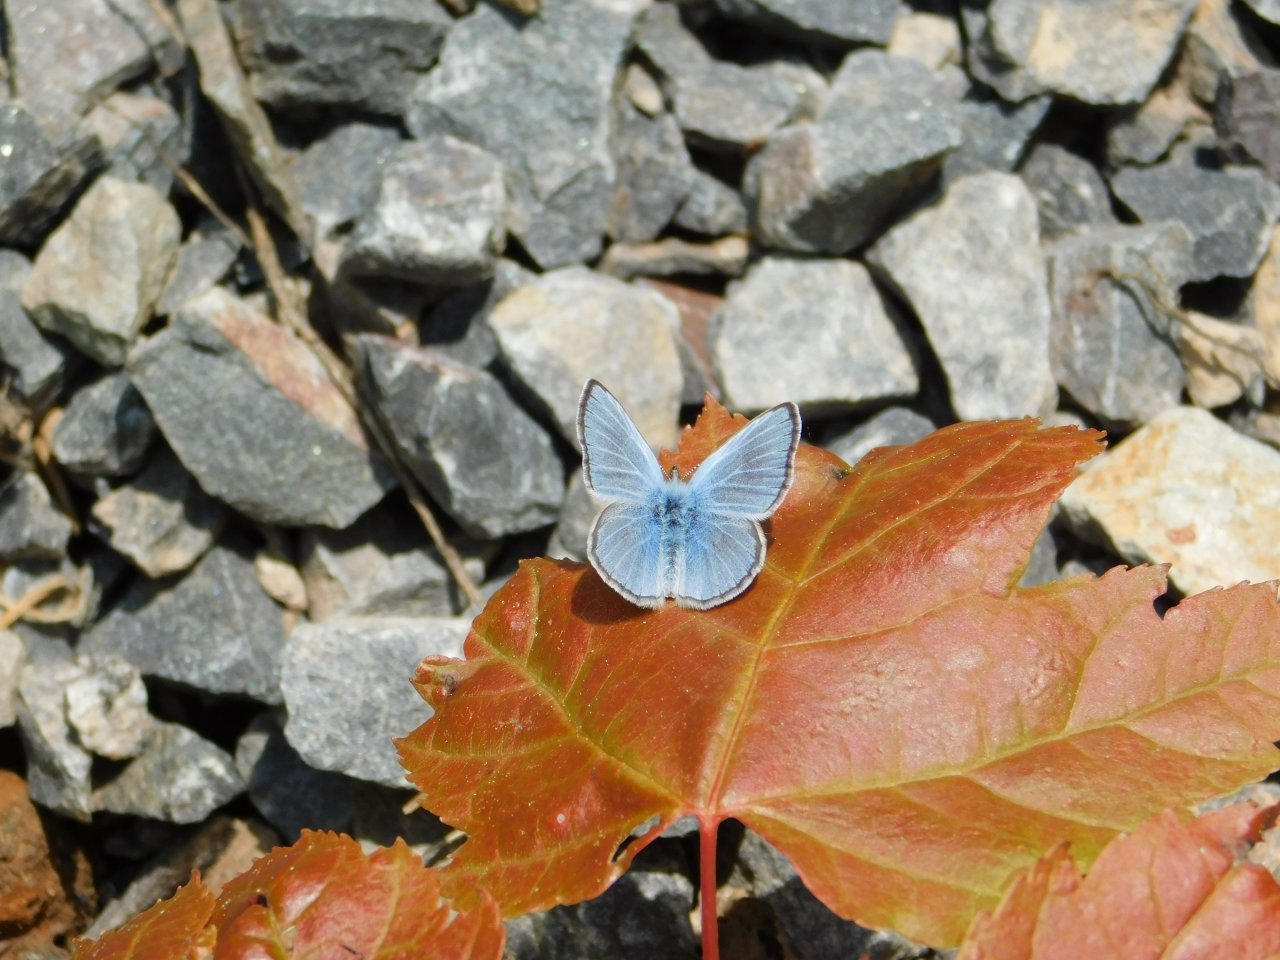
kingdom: Animalia
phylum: Arthropoda
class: Insecta
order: Lepidoptera
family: Lycaenidae
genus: Glaucopsyche
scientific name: Glaucopsyche lygdamus
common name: Silvery Blue
